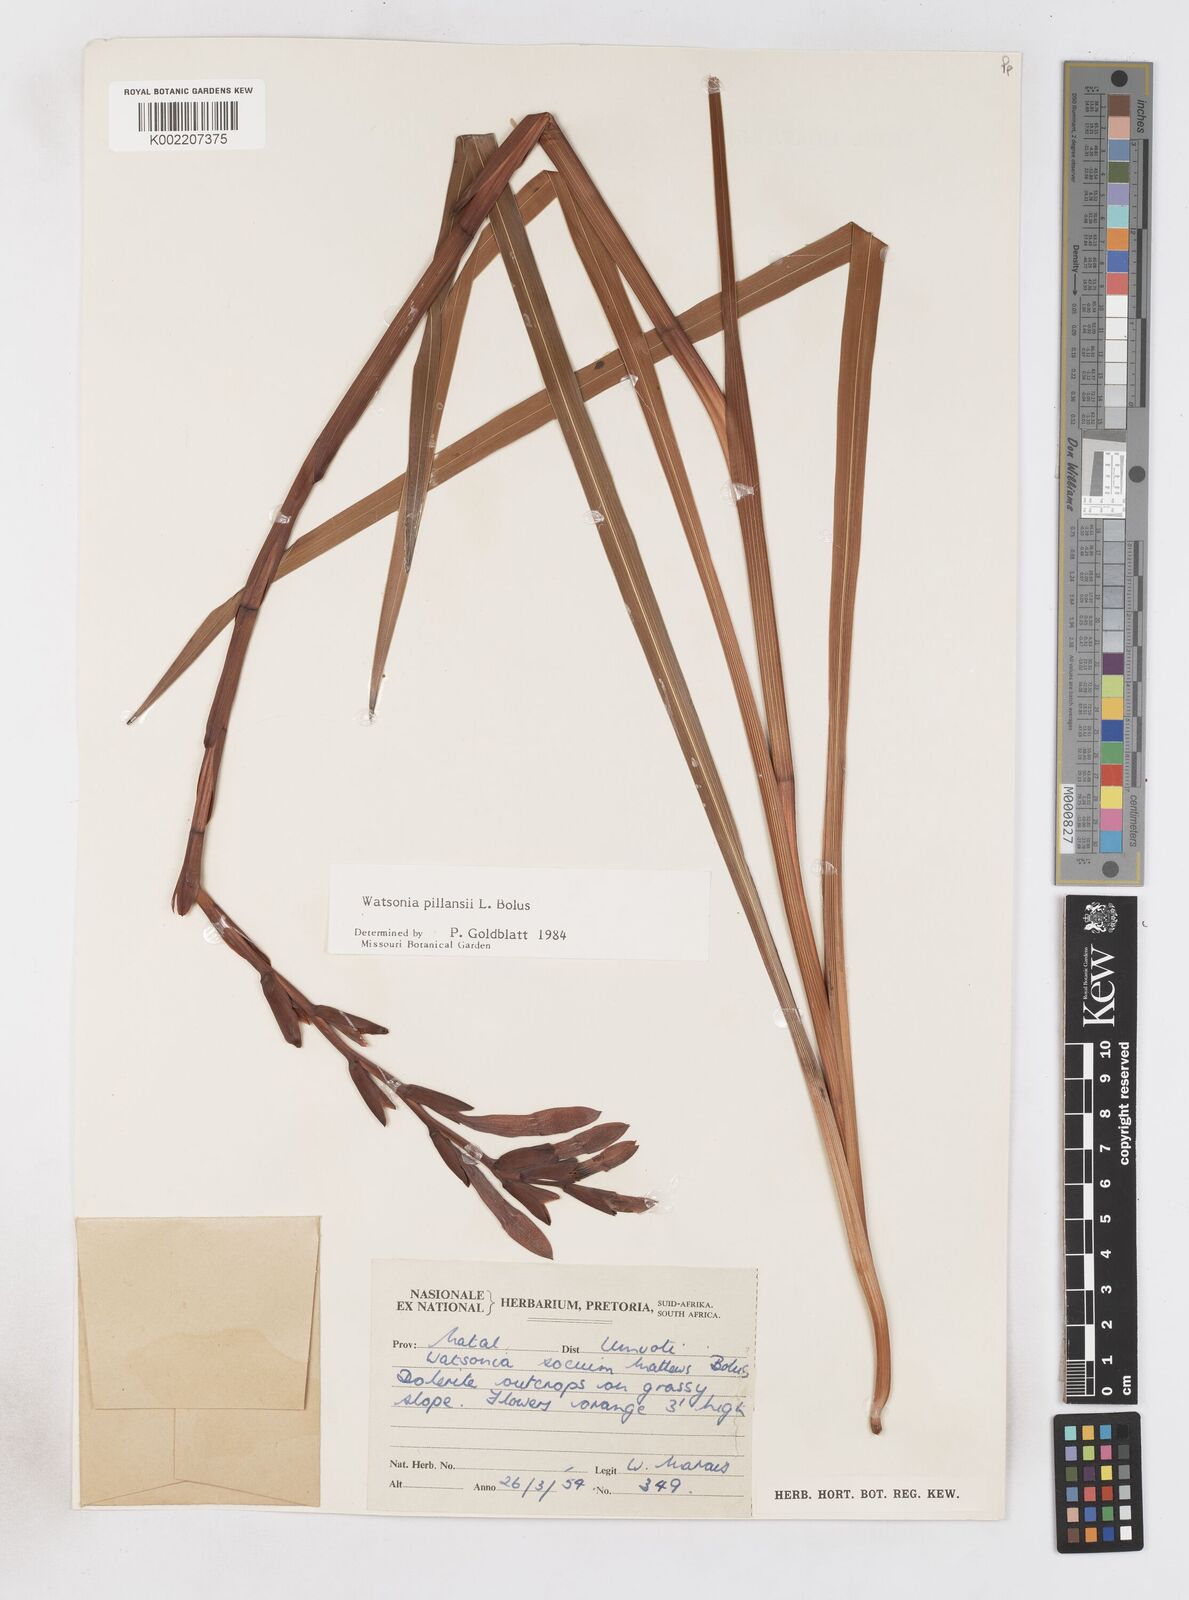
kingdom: Plantae
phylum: Tracheophyta
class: Liliopsida
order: Asparagales
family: Iridaceae
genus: Watsonia
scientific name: Watsonia pillansii
